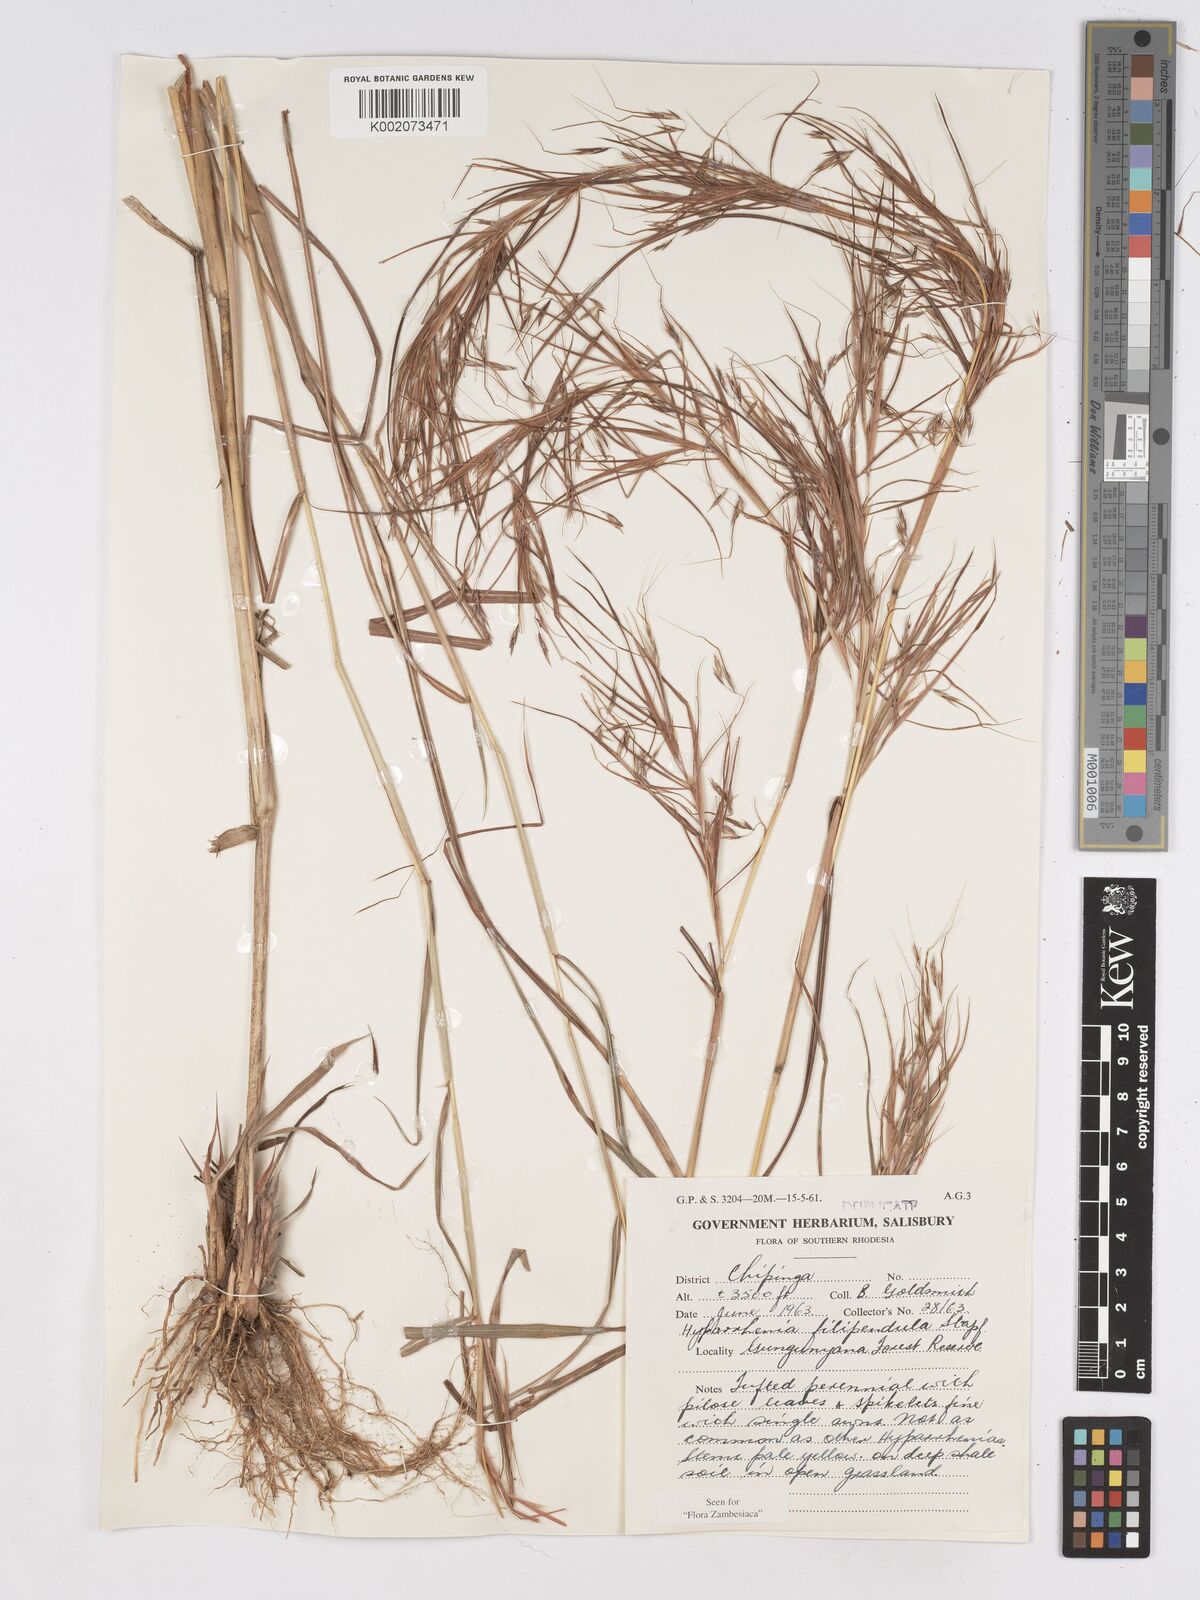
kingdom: Plantae
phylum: Tracheophyta
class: Liliopsida
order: Poales
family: Poaceae
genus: Hyparrhenia
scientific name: Hyparrhenia filipendula
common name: Tambookie grass
